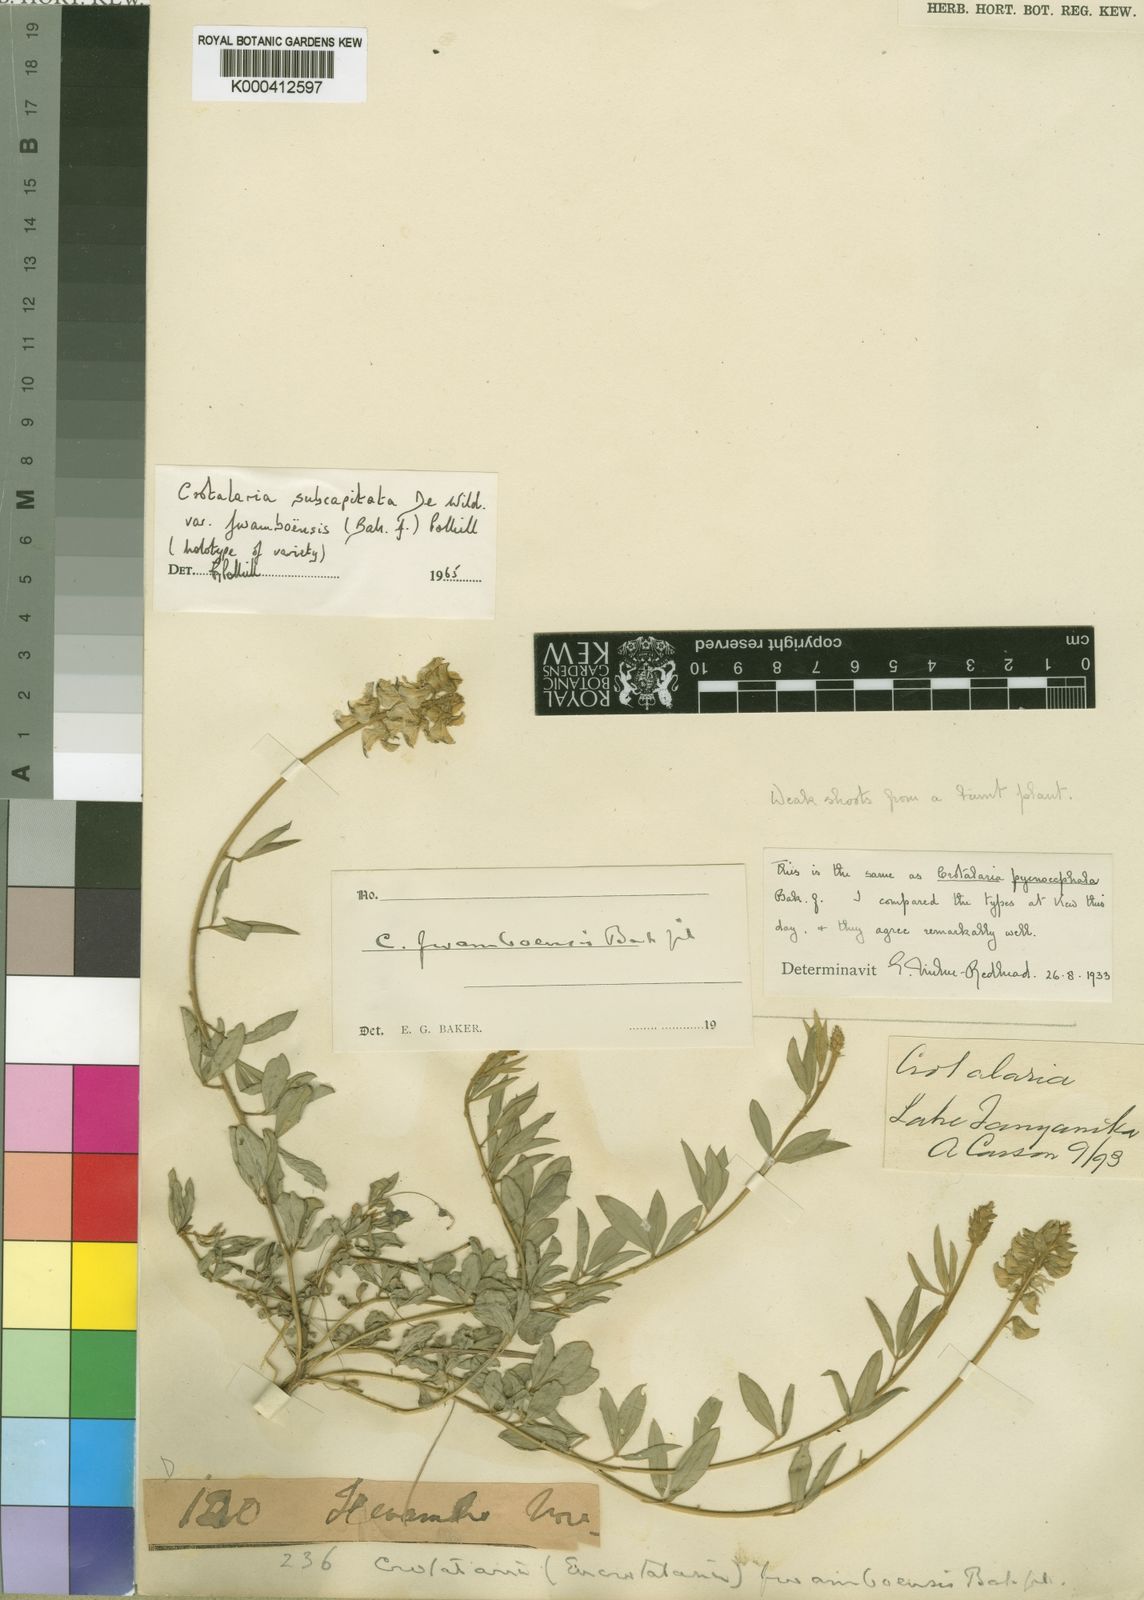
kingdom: Plantae
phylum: Tracheophyta
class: Magnoliopsida
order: Fabales
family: Fabaceae
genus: Crotalaria
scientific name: Crotalaria subcapitata
